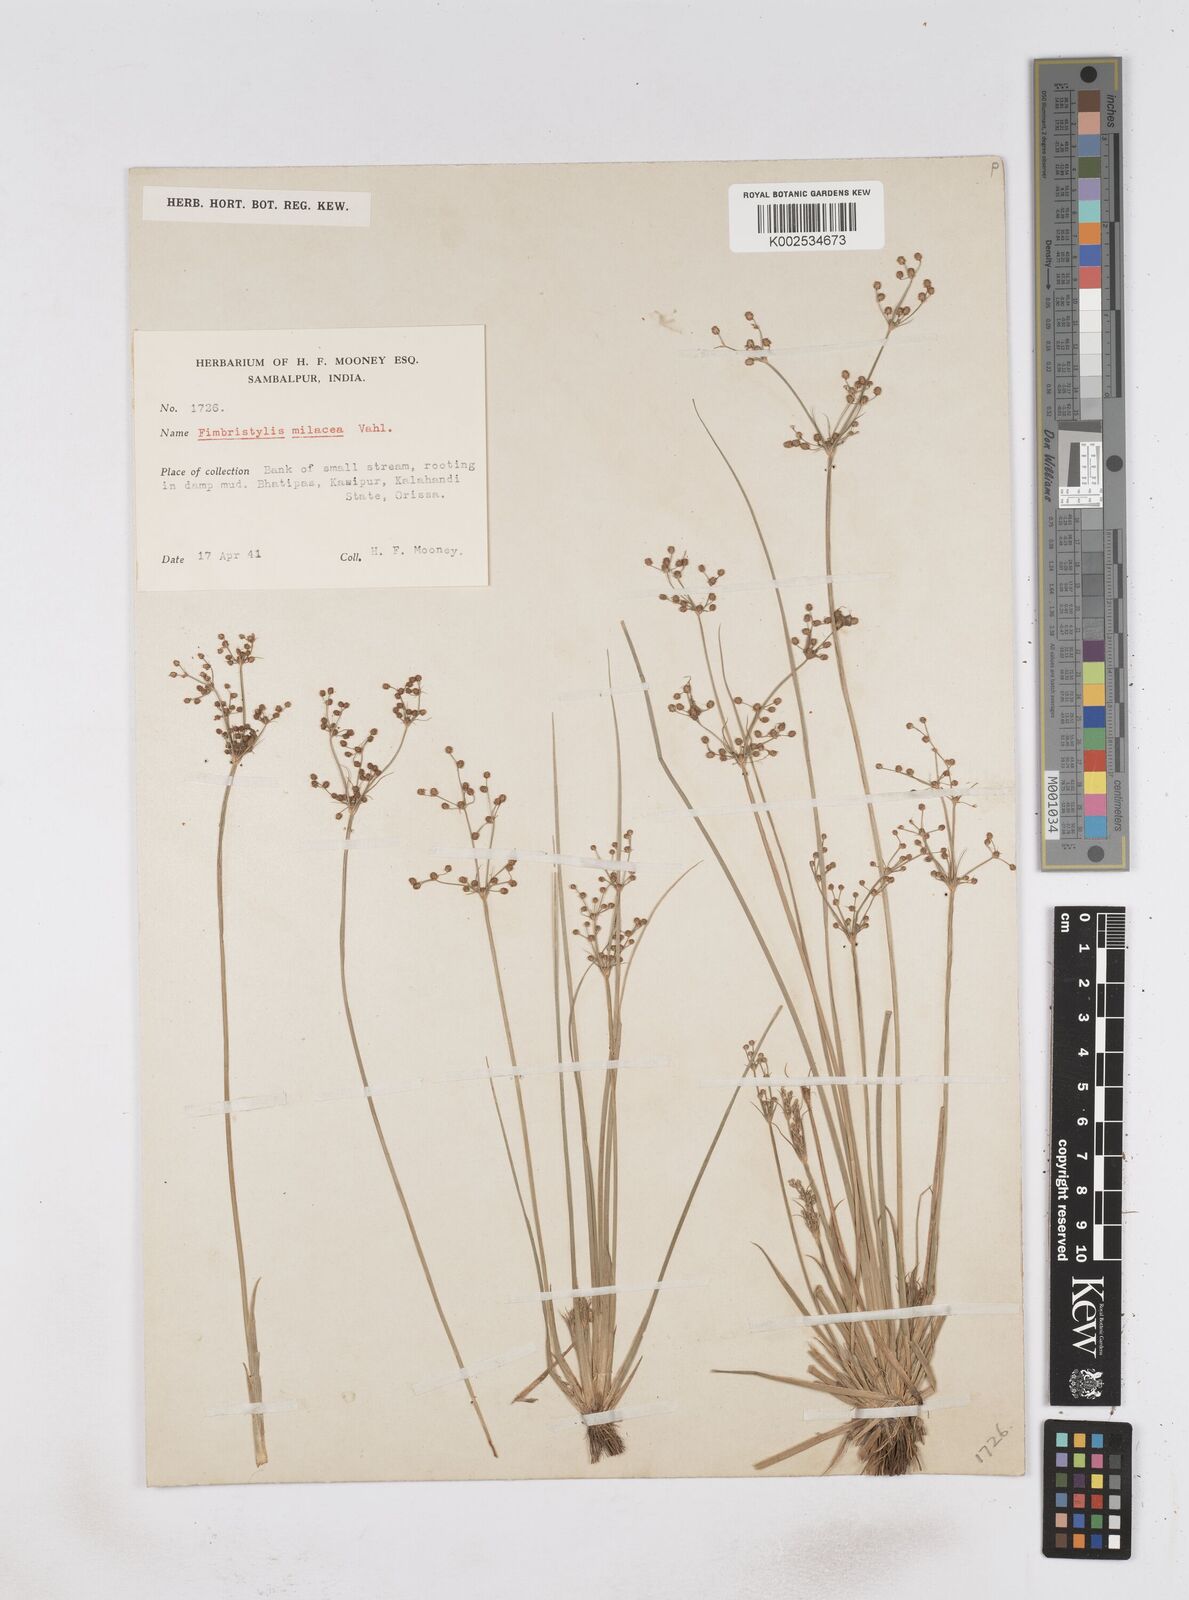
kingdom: Plantae
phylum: Tracheophyta
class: Liliopsida
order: Poales
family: Cyperaceae
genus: Fimbristylis
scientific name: Fimbristylis littoralis
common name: Fimbry
